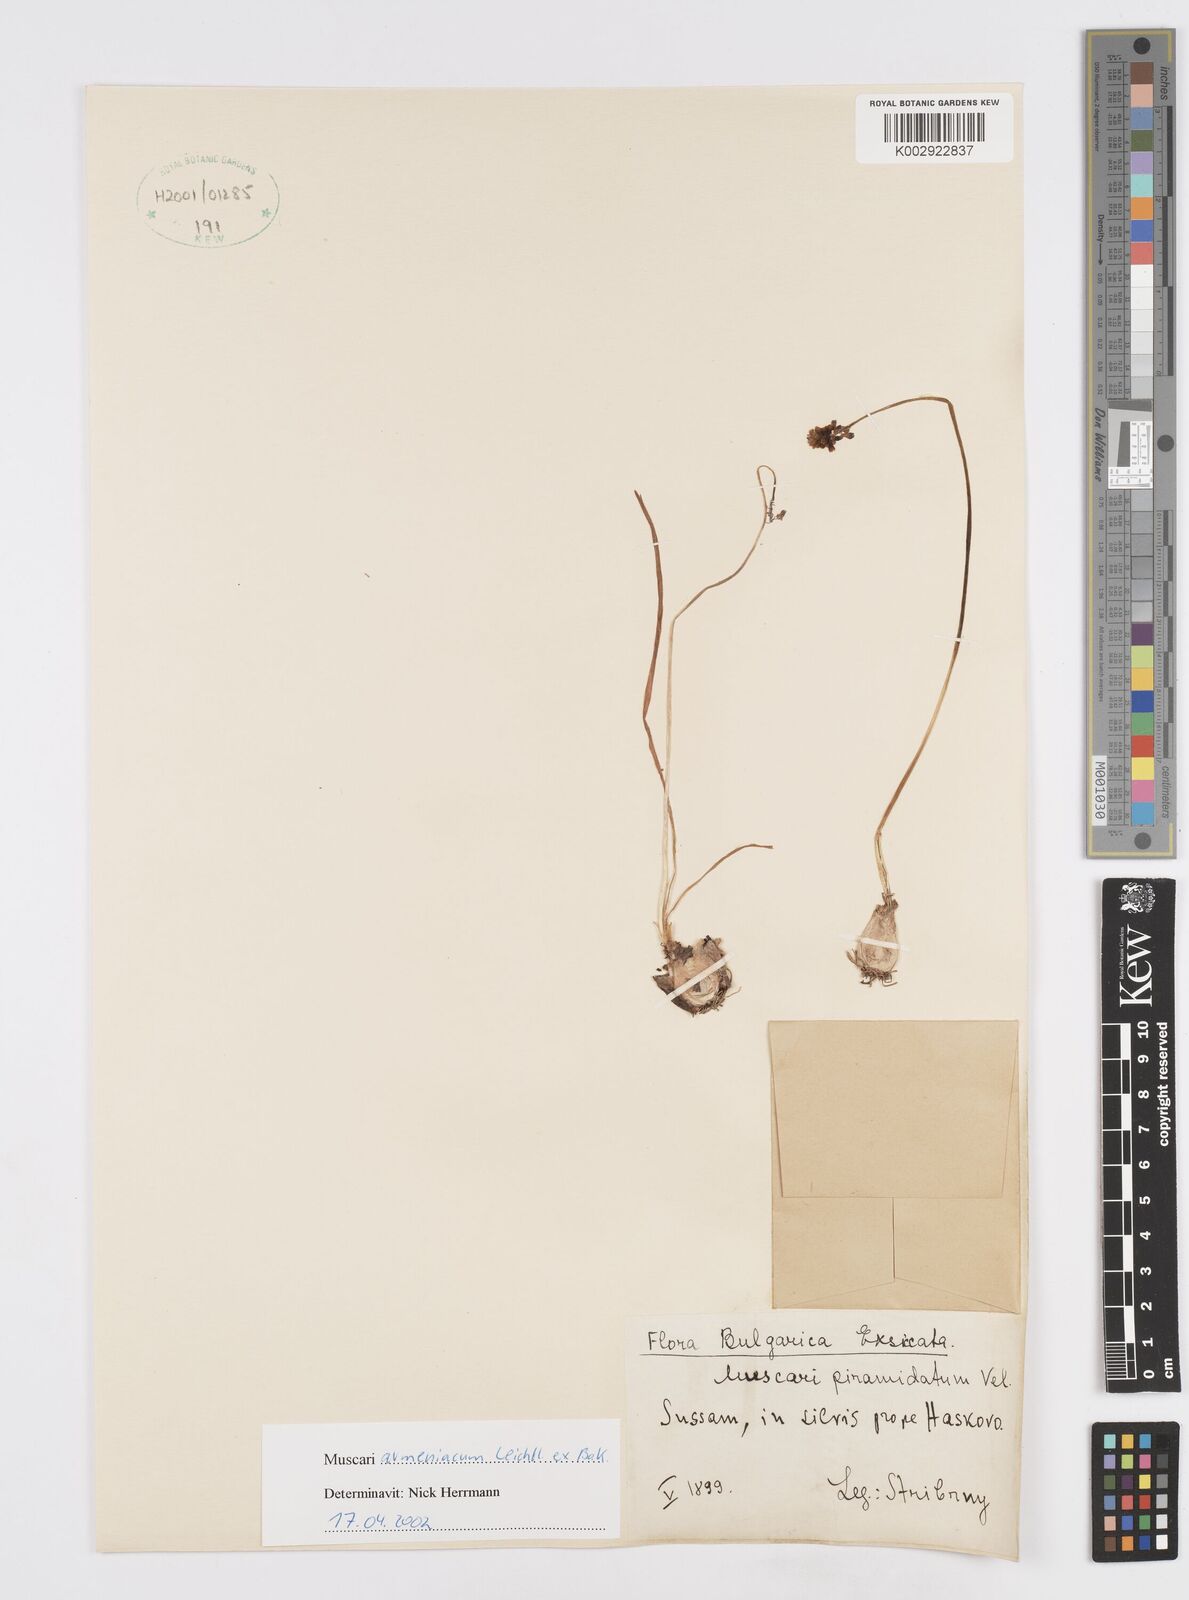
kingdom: Plantae
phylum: Tracheophyta
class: Liliopsida
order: Asparagales
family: Asparagaceae
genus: Muscari
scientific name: Muscari
